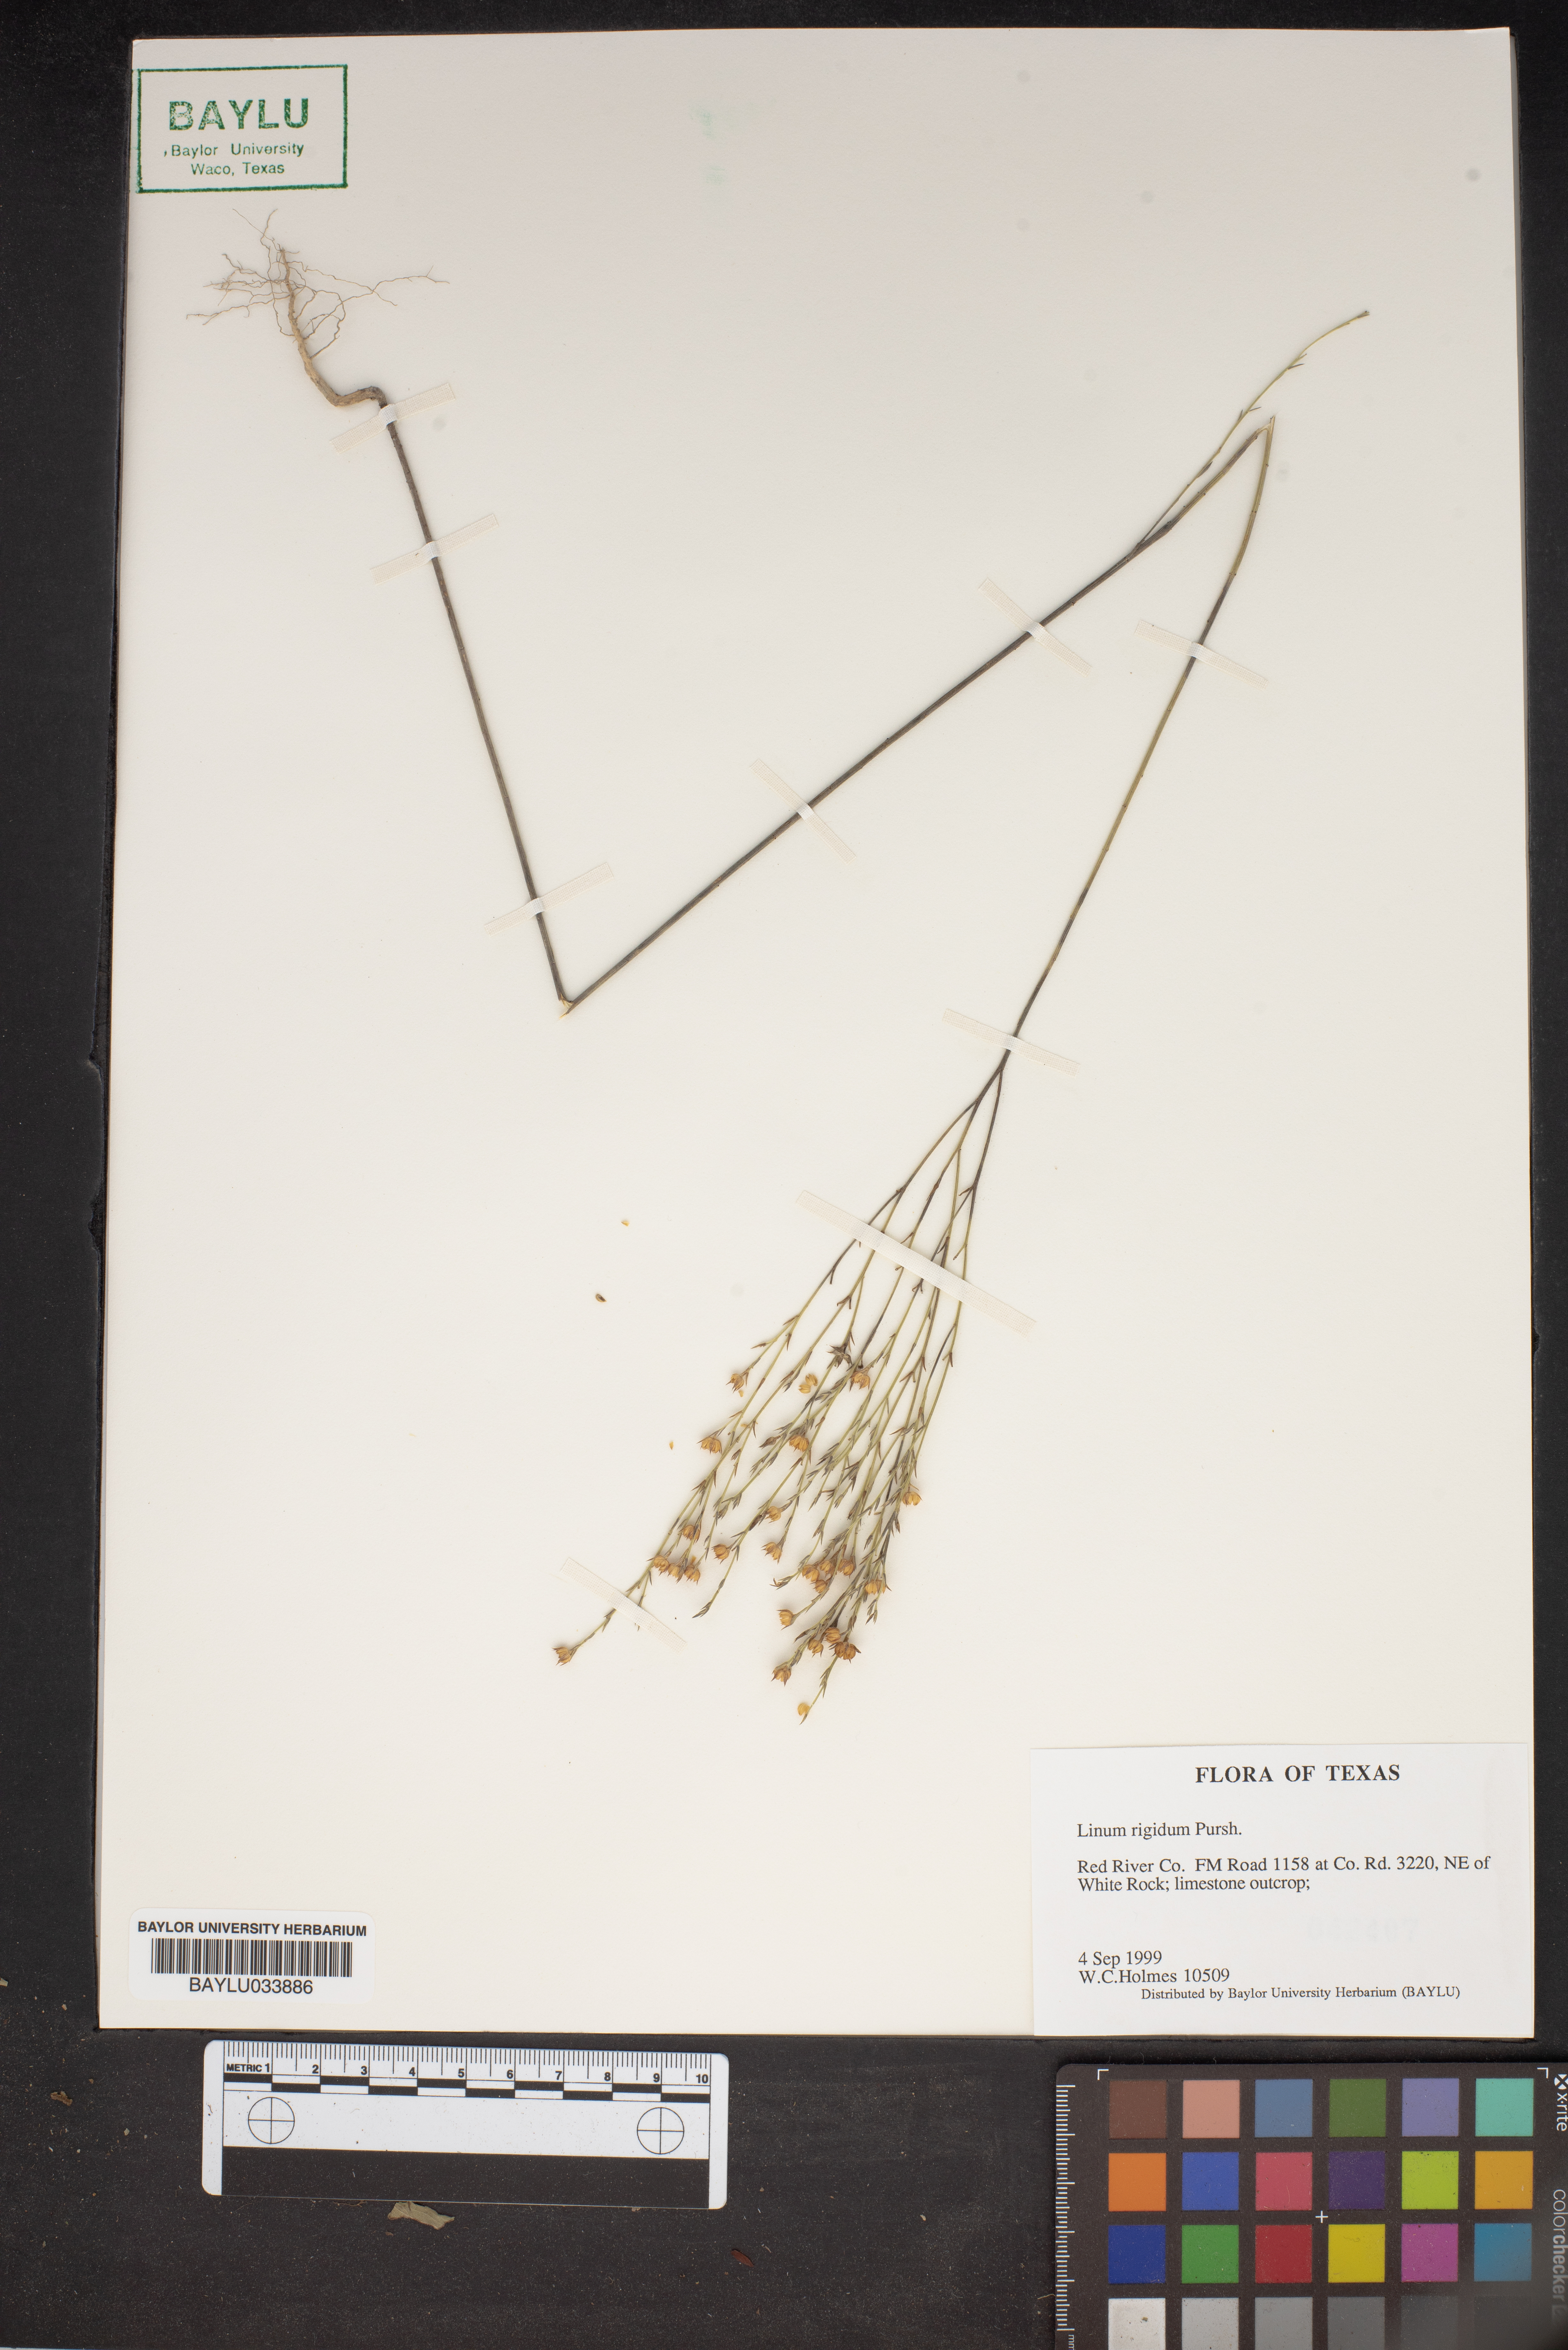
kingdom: Plantae
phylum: Tracheophyta
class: Magnoliopsida
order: Malpighiales
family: Linaceae
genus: Linum
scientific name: Linum rigidum
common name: Stiff-stem flax
